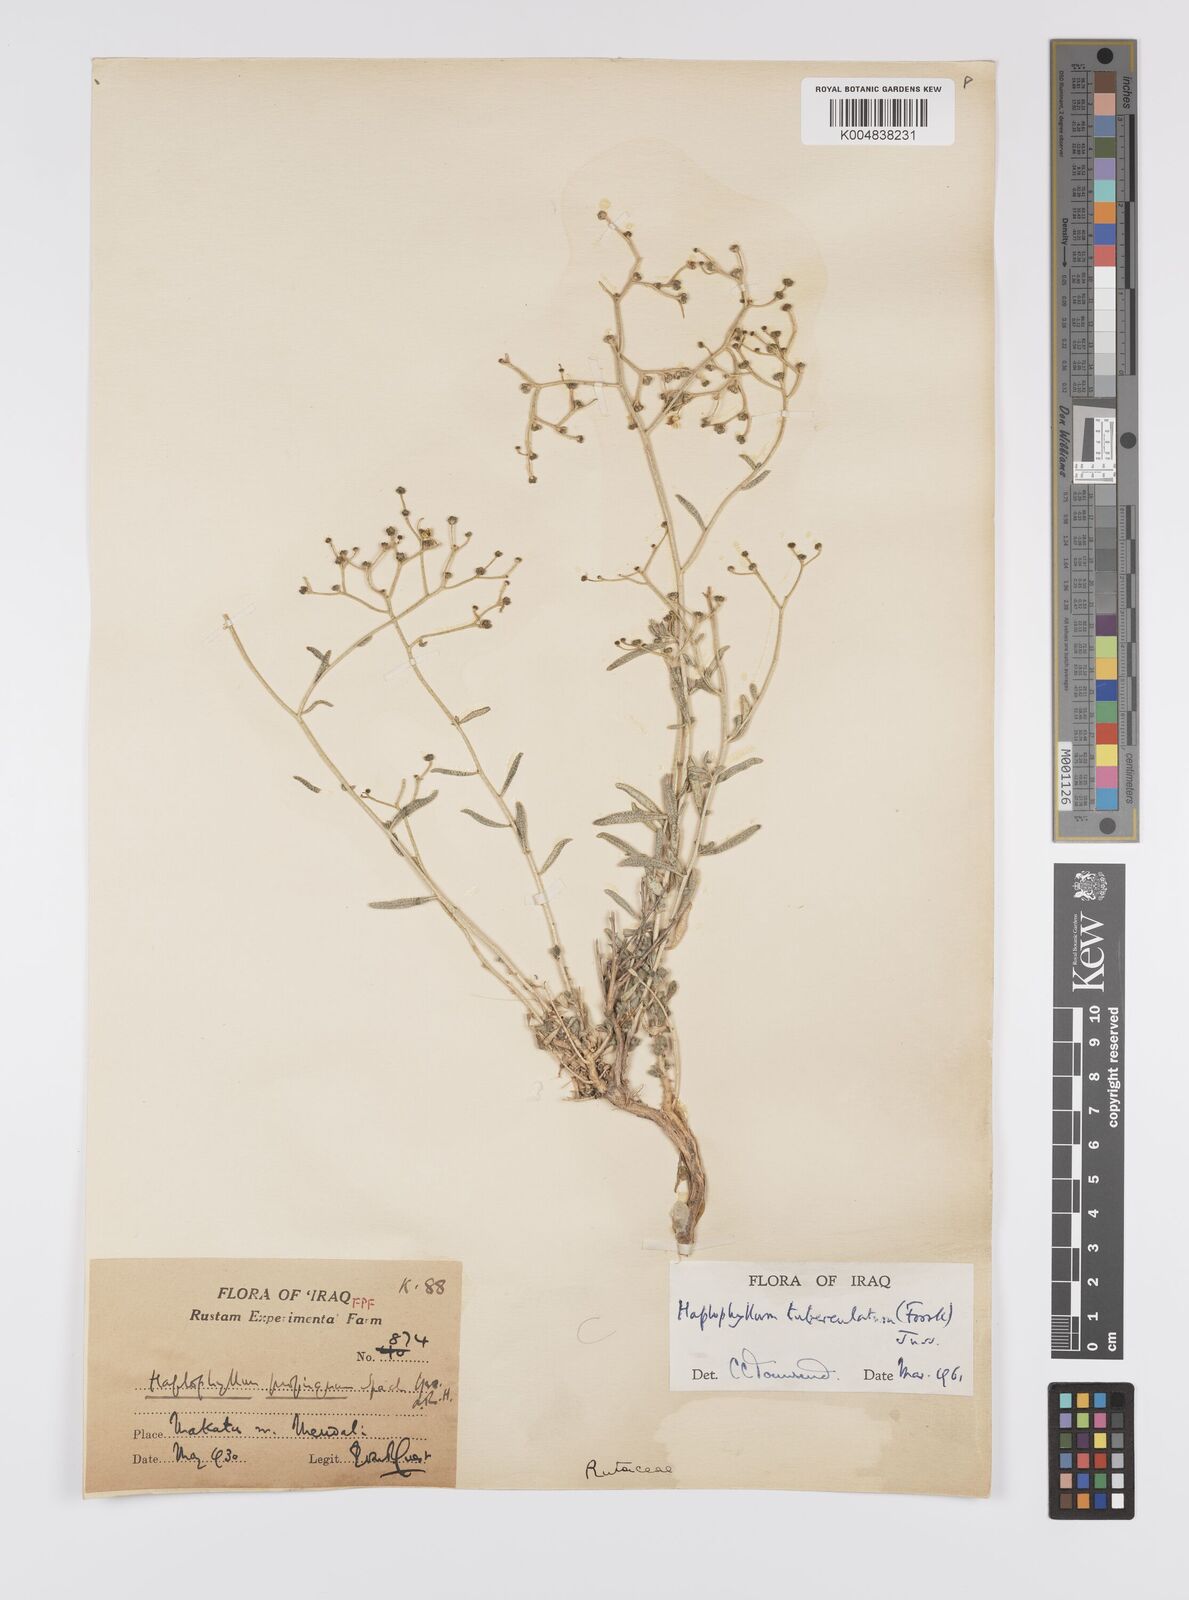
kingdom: Plantae
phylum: Tracheophyta
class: Magnoliopsida
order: Sapindales
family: Rutaceae
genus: Haplophyllum
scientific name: Haplophyllum tuberculatum
